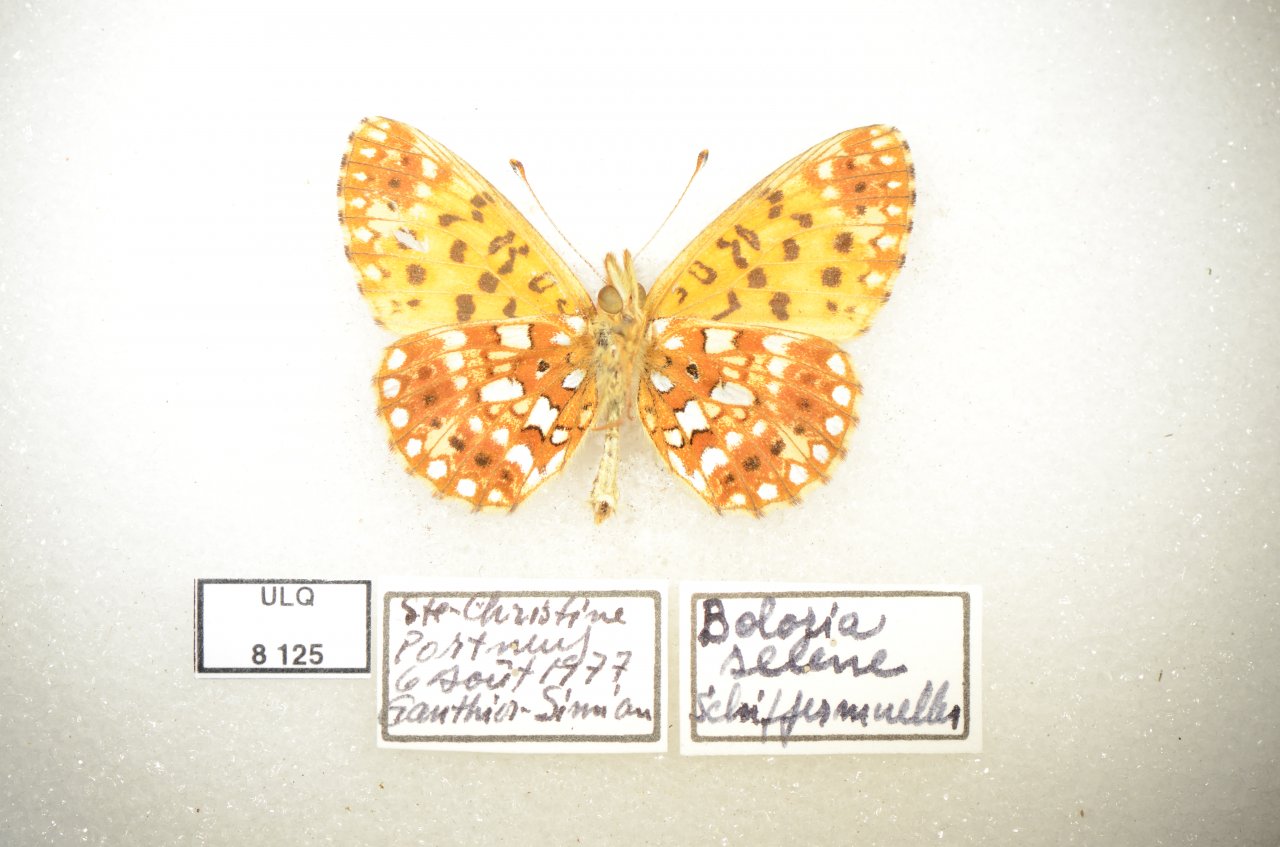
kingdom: Animalia
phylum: Arthropoda
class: Insecta
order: Lepidoptera
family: Nymphalidae
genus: Boloria
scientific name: Boloria selene
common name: Silver-bordered Fritillary
